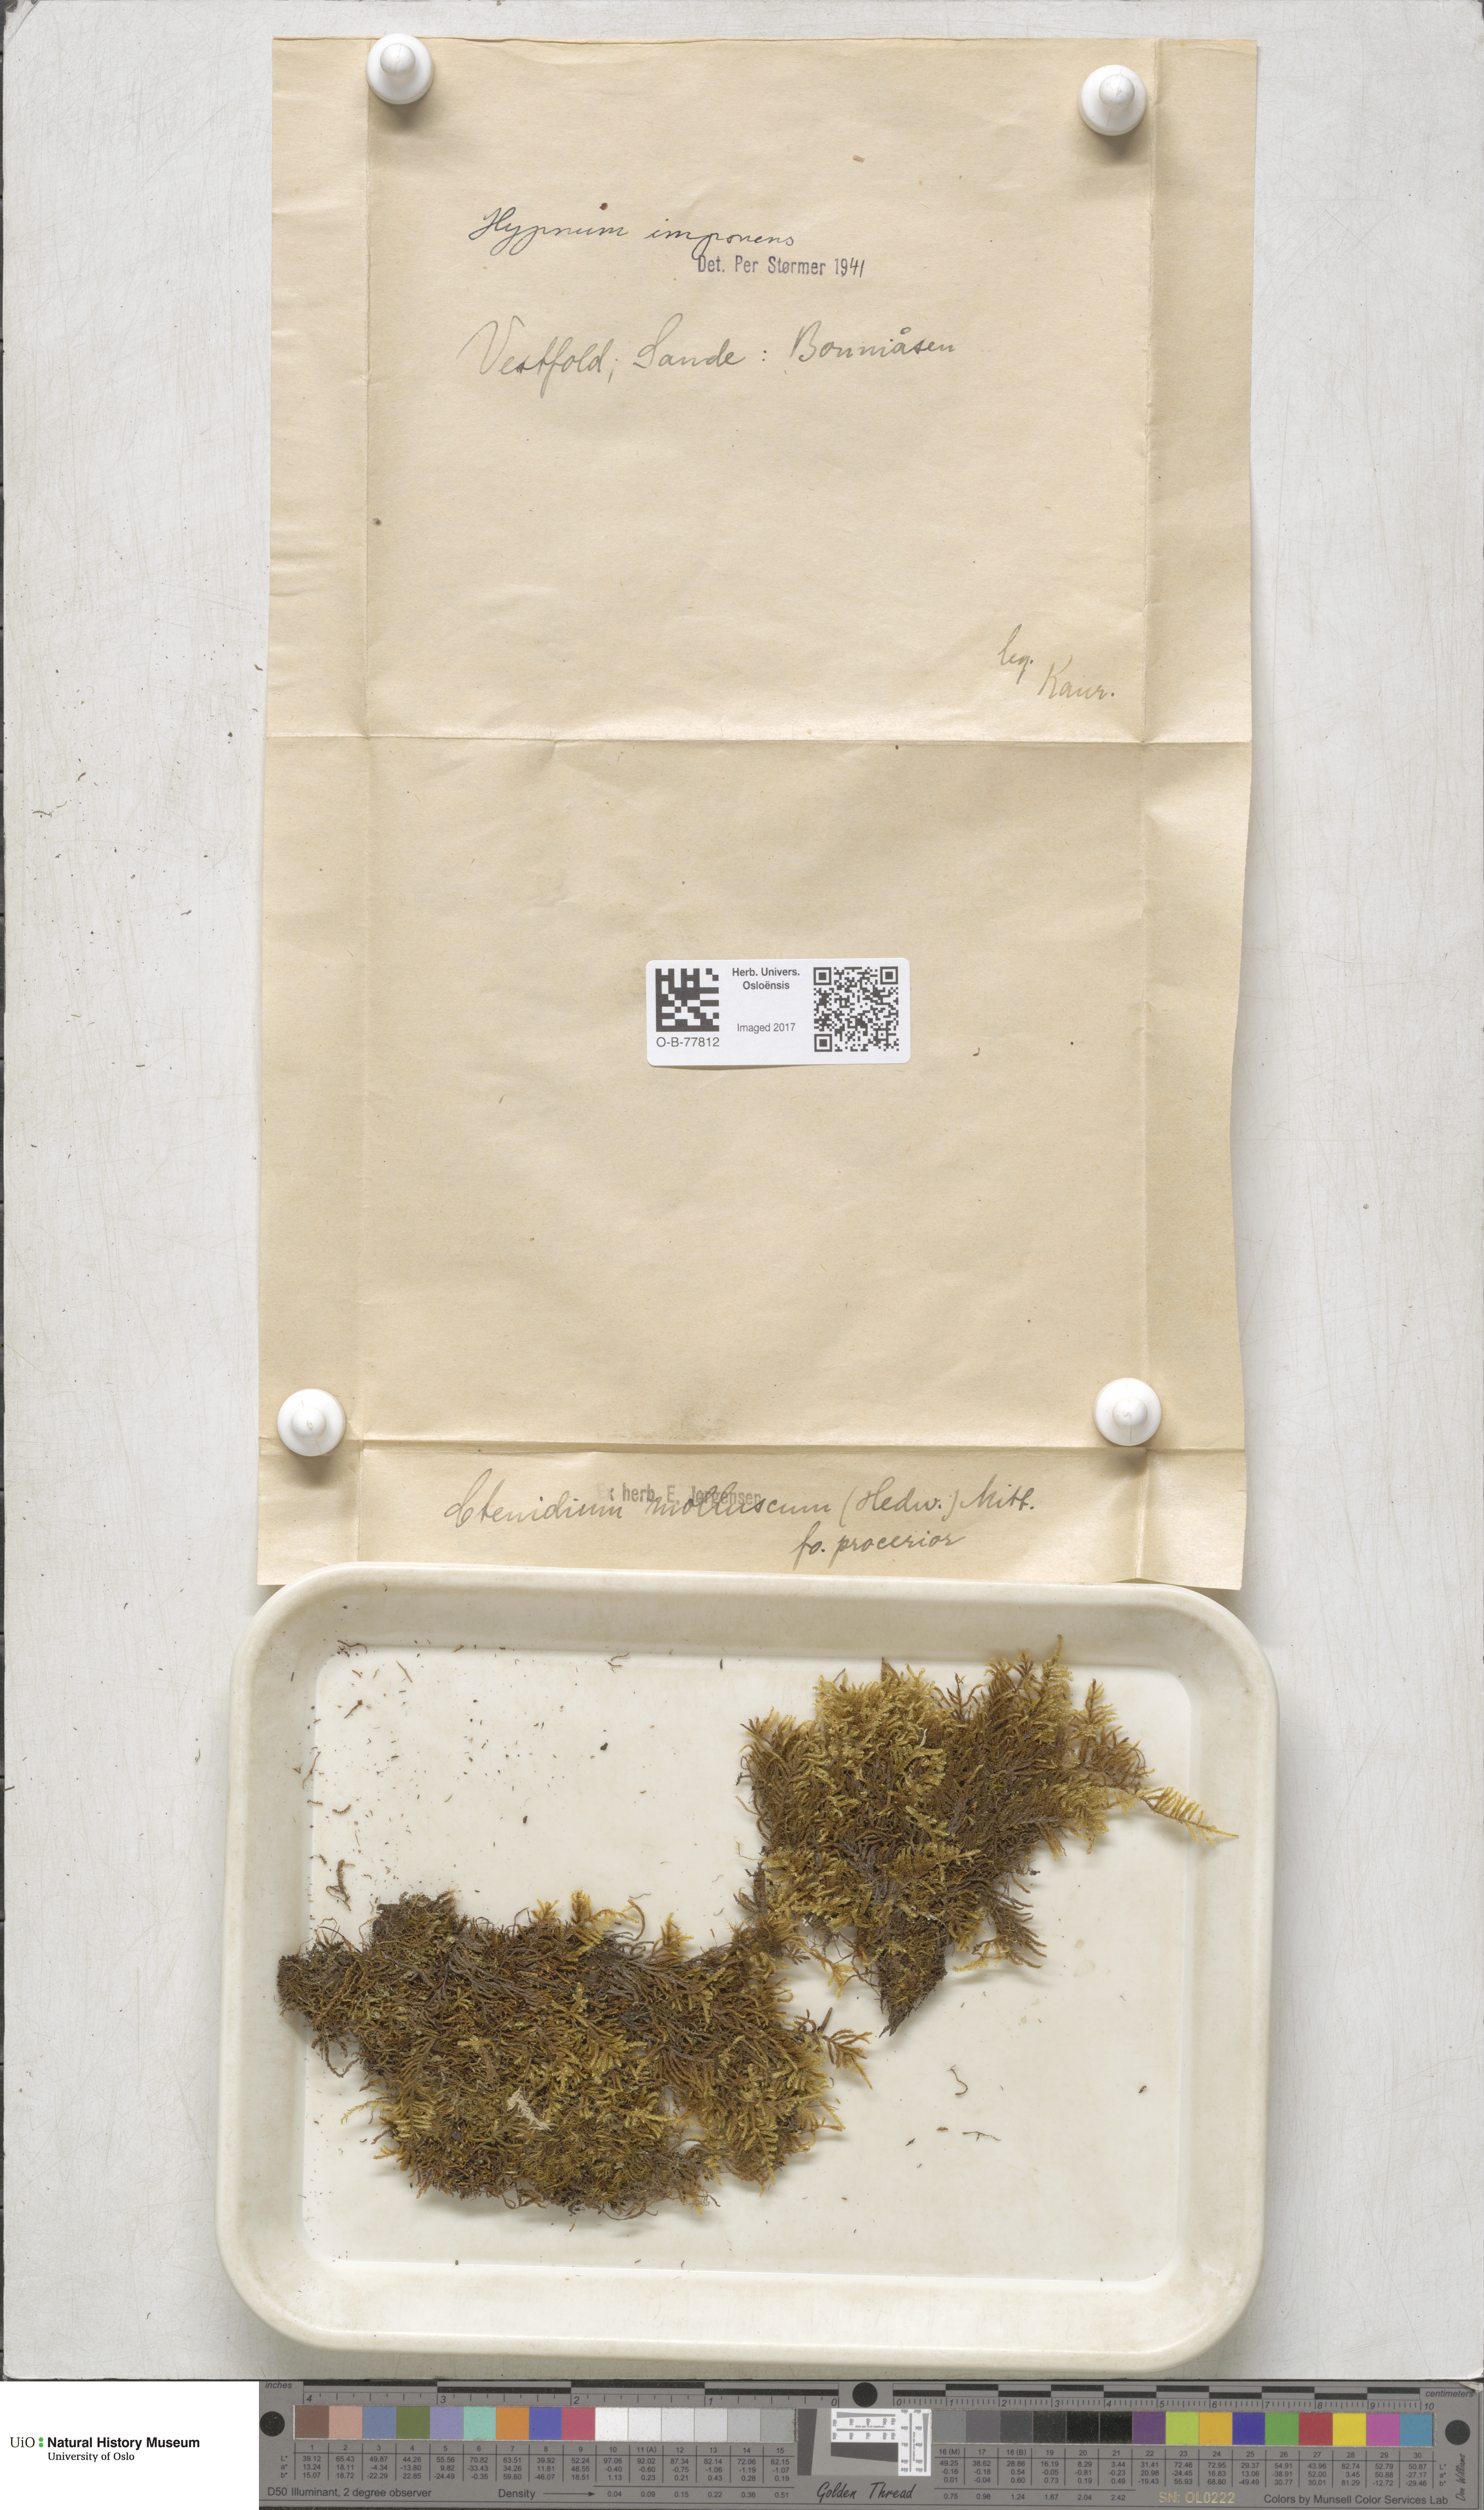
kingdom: Plantae
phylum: Bryophyta
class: Bryopsida
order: Hypnales
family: Callicladiaceae
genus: Callicladium
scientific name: Callicladium imponens
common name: Brocade moss
